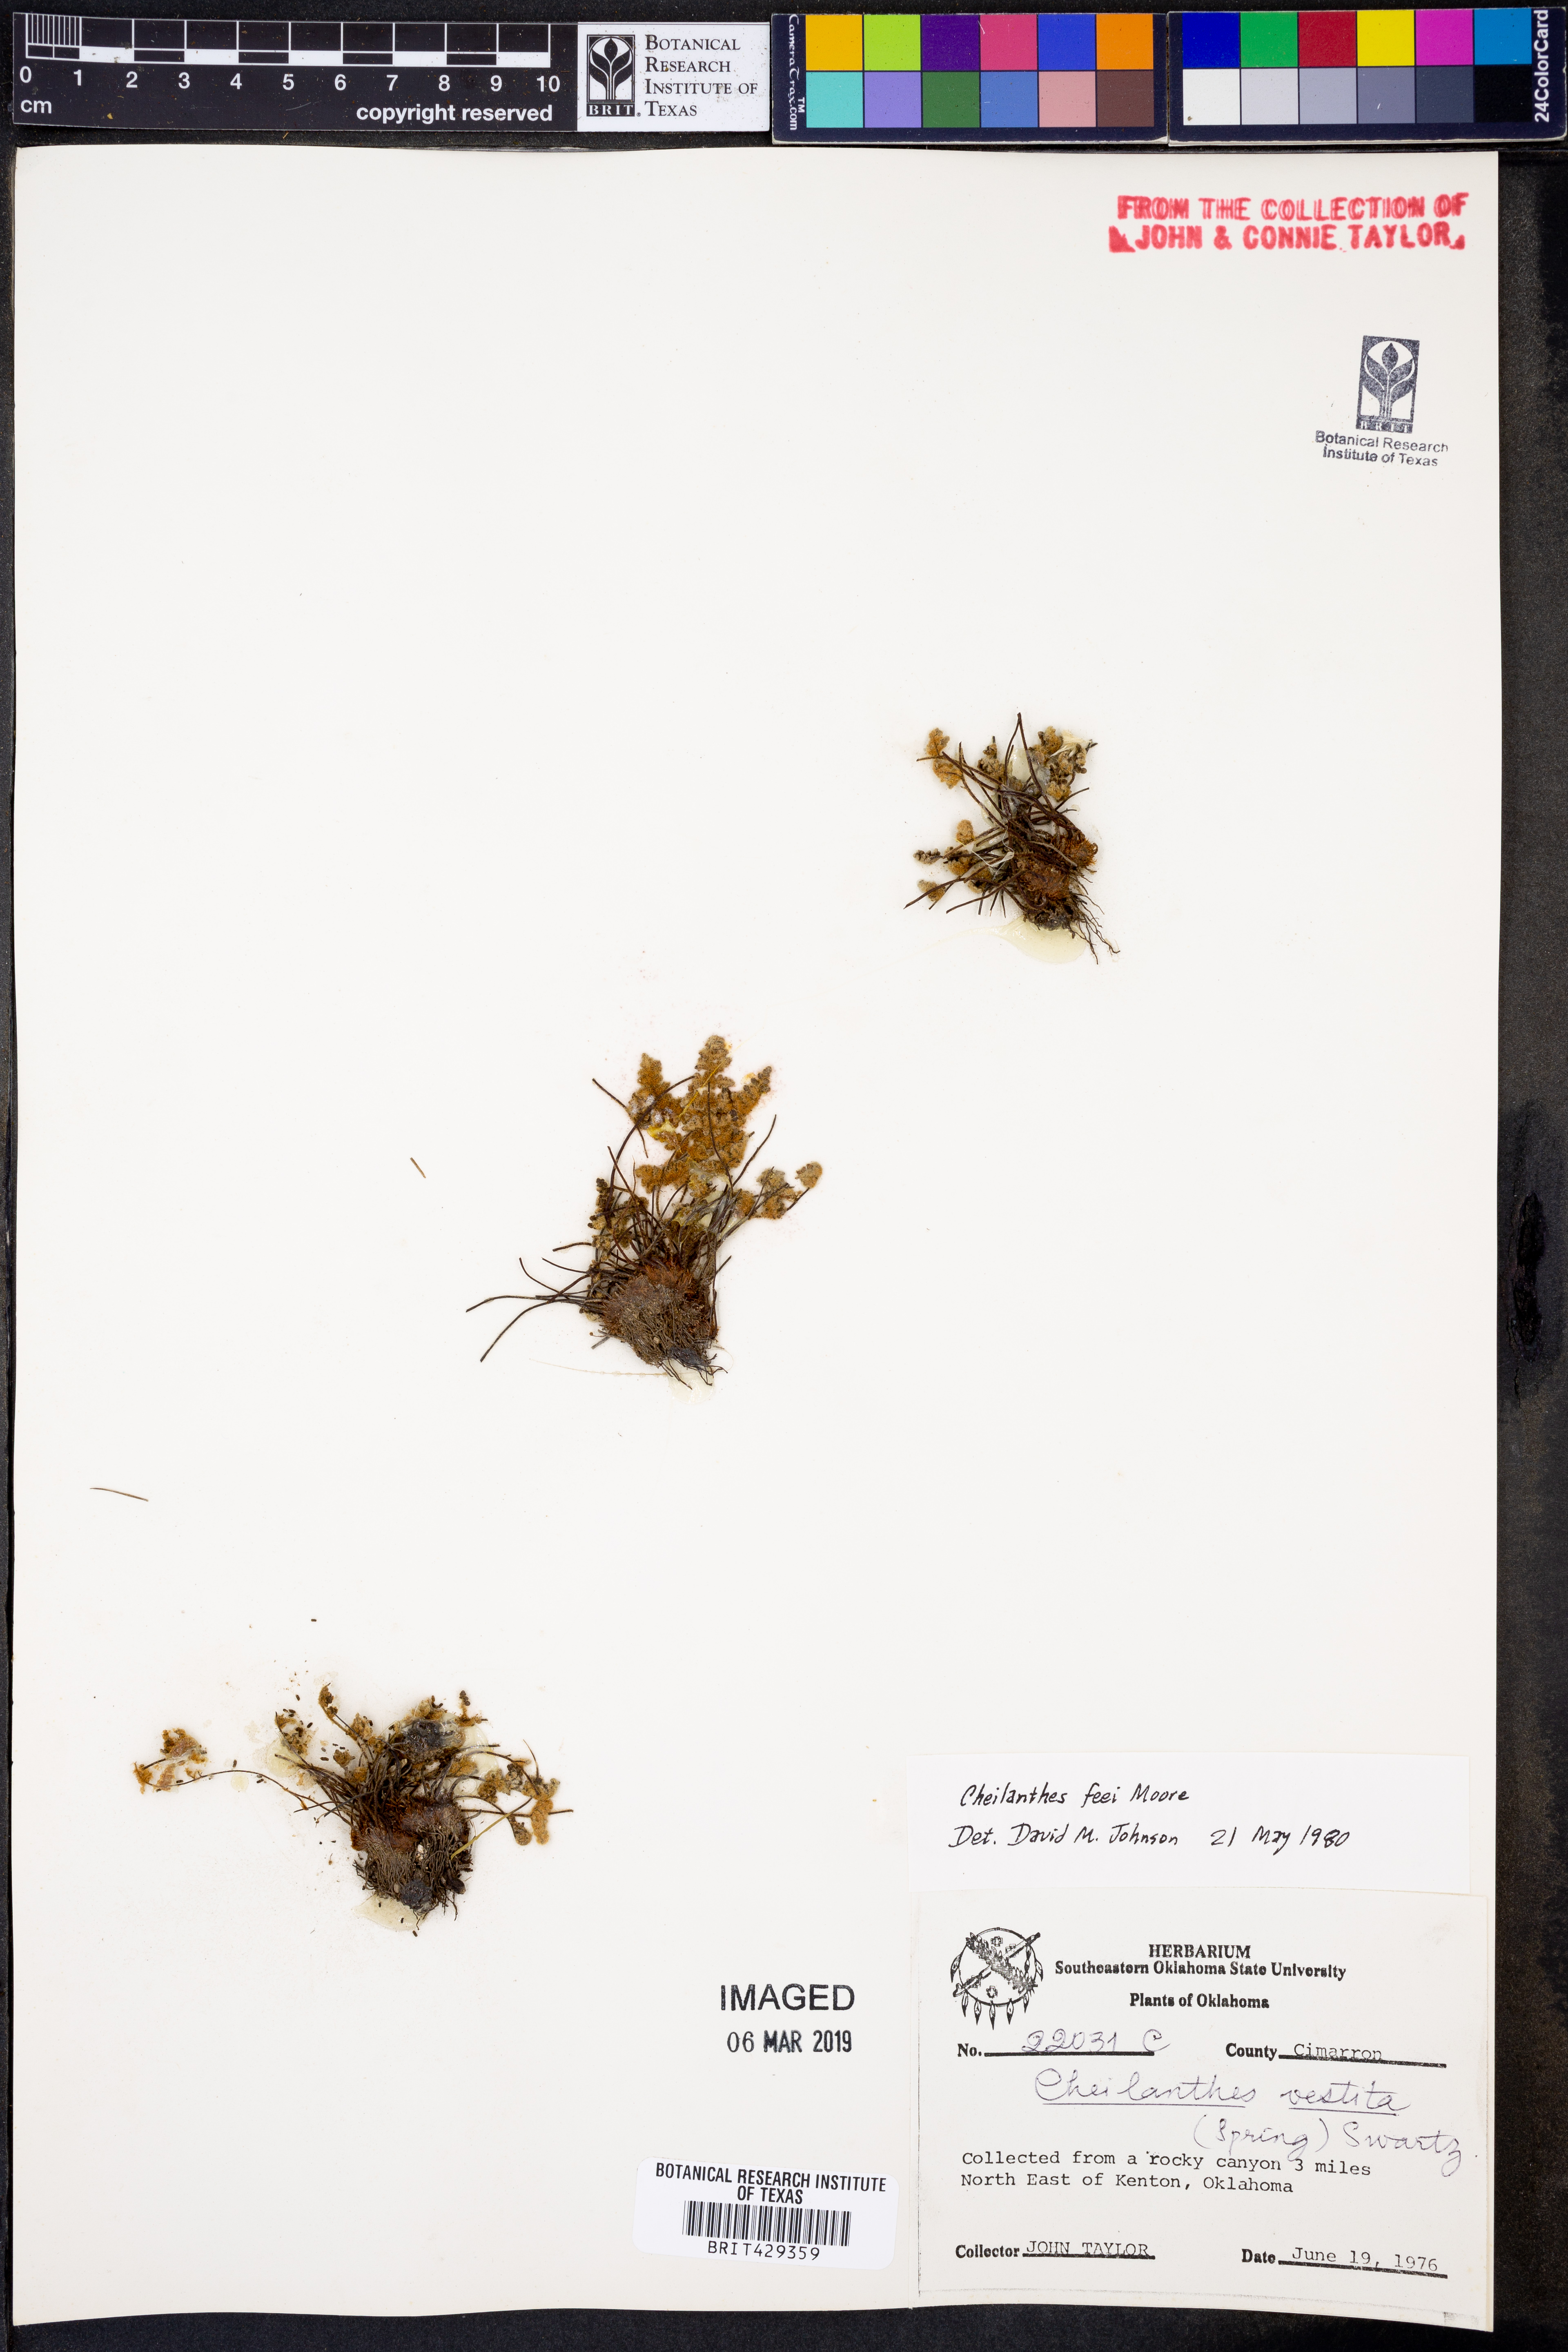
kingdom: Plantae
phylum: Tracheophyta
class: Polypodiopsida
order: Polypodiales
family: Pteridaceae
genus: Myriopteris
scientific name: Myriopteris gracilis
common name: Fee's lip fern
